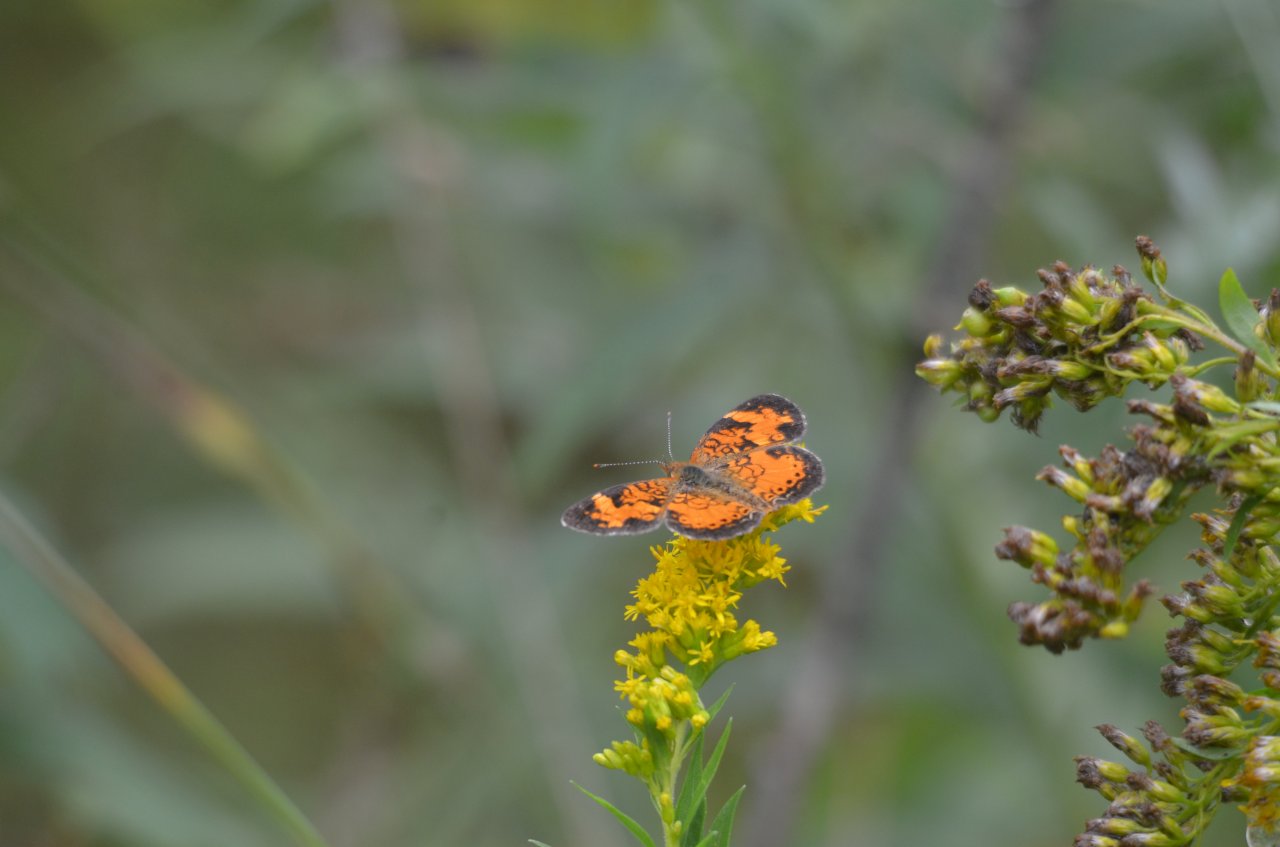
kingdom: Animalia
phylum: Arthropoda
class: Insecta
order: Lepidoptera
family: Nymphalidae
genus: Phyciodes
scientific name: Phyciodes tharos
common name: Northern Crescent
